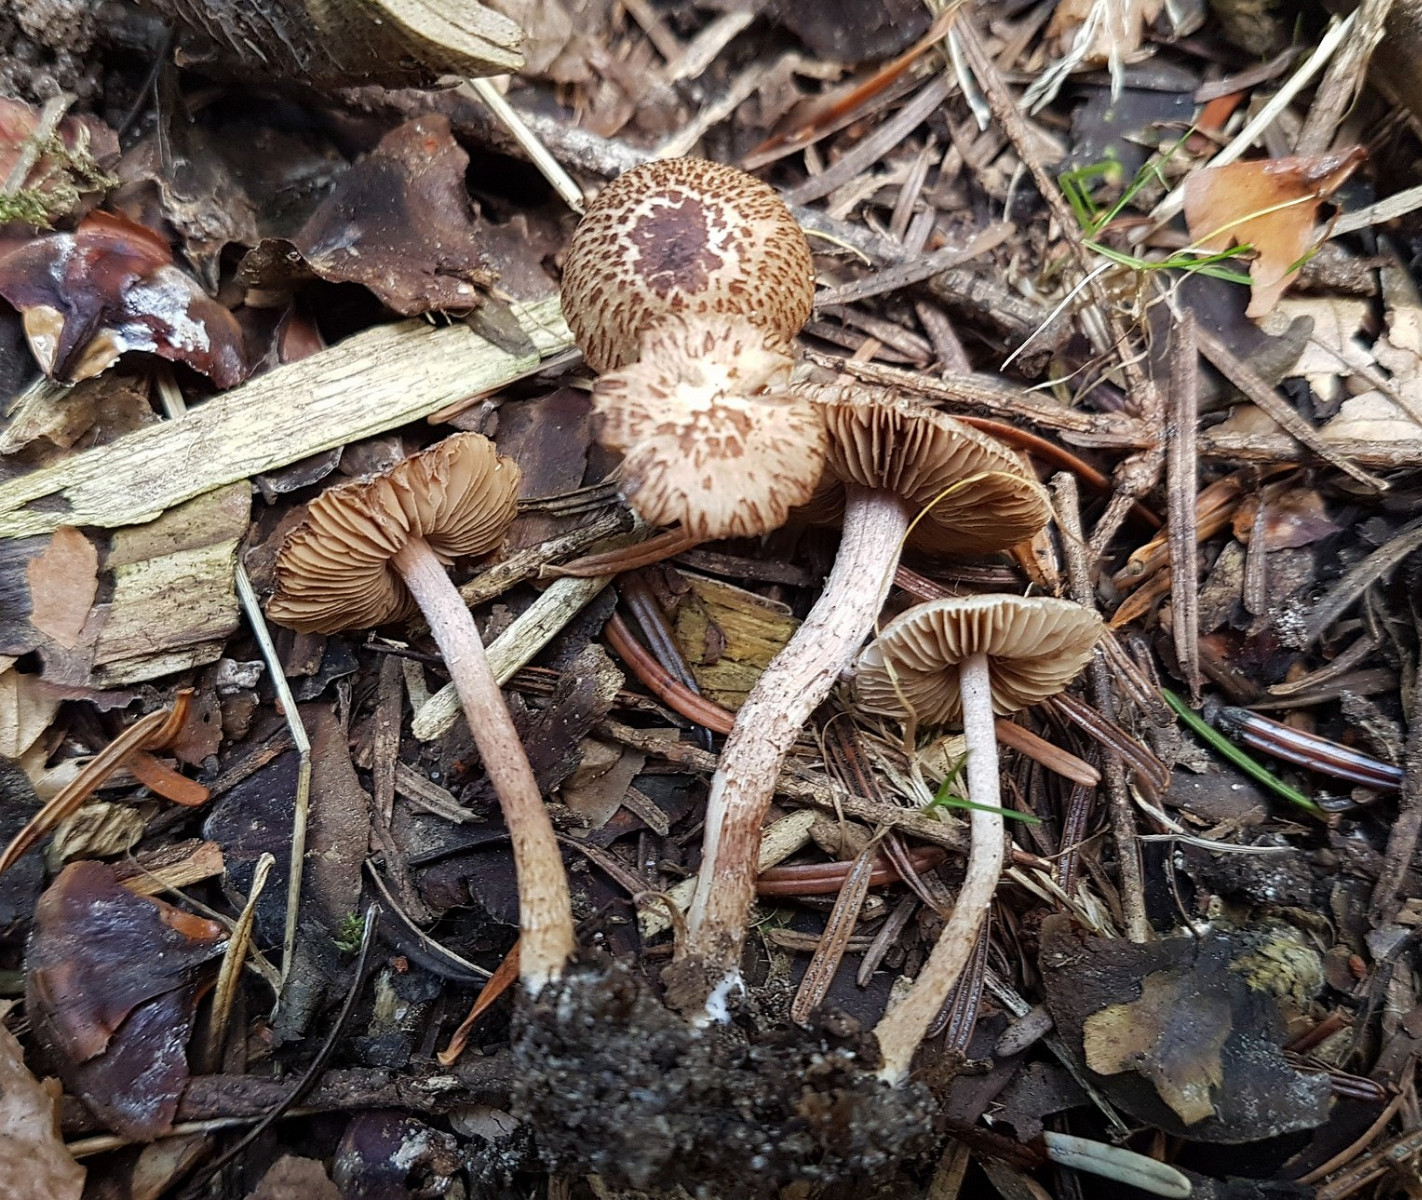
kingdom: Fungi
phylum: Basidiomycota
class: Agaricomycetes
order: Agaricales
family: Inocybaceae
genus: Inocybe
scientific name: Inocybe cincinnata
